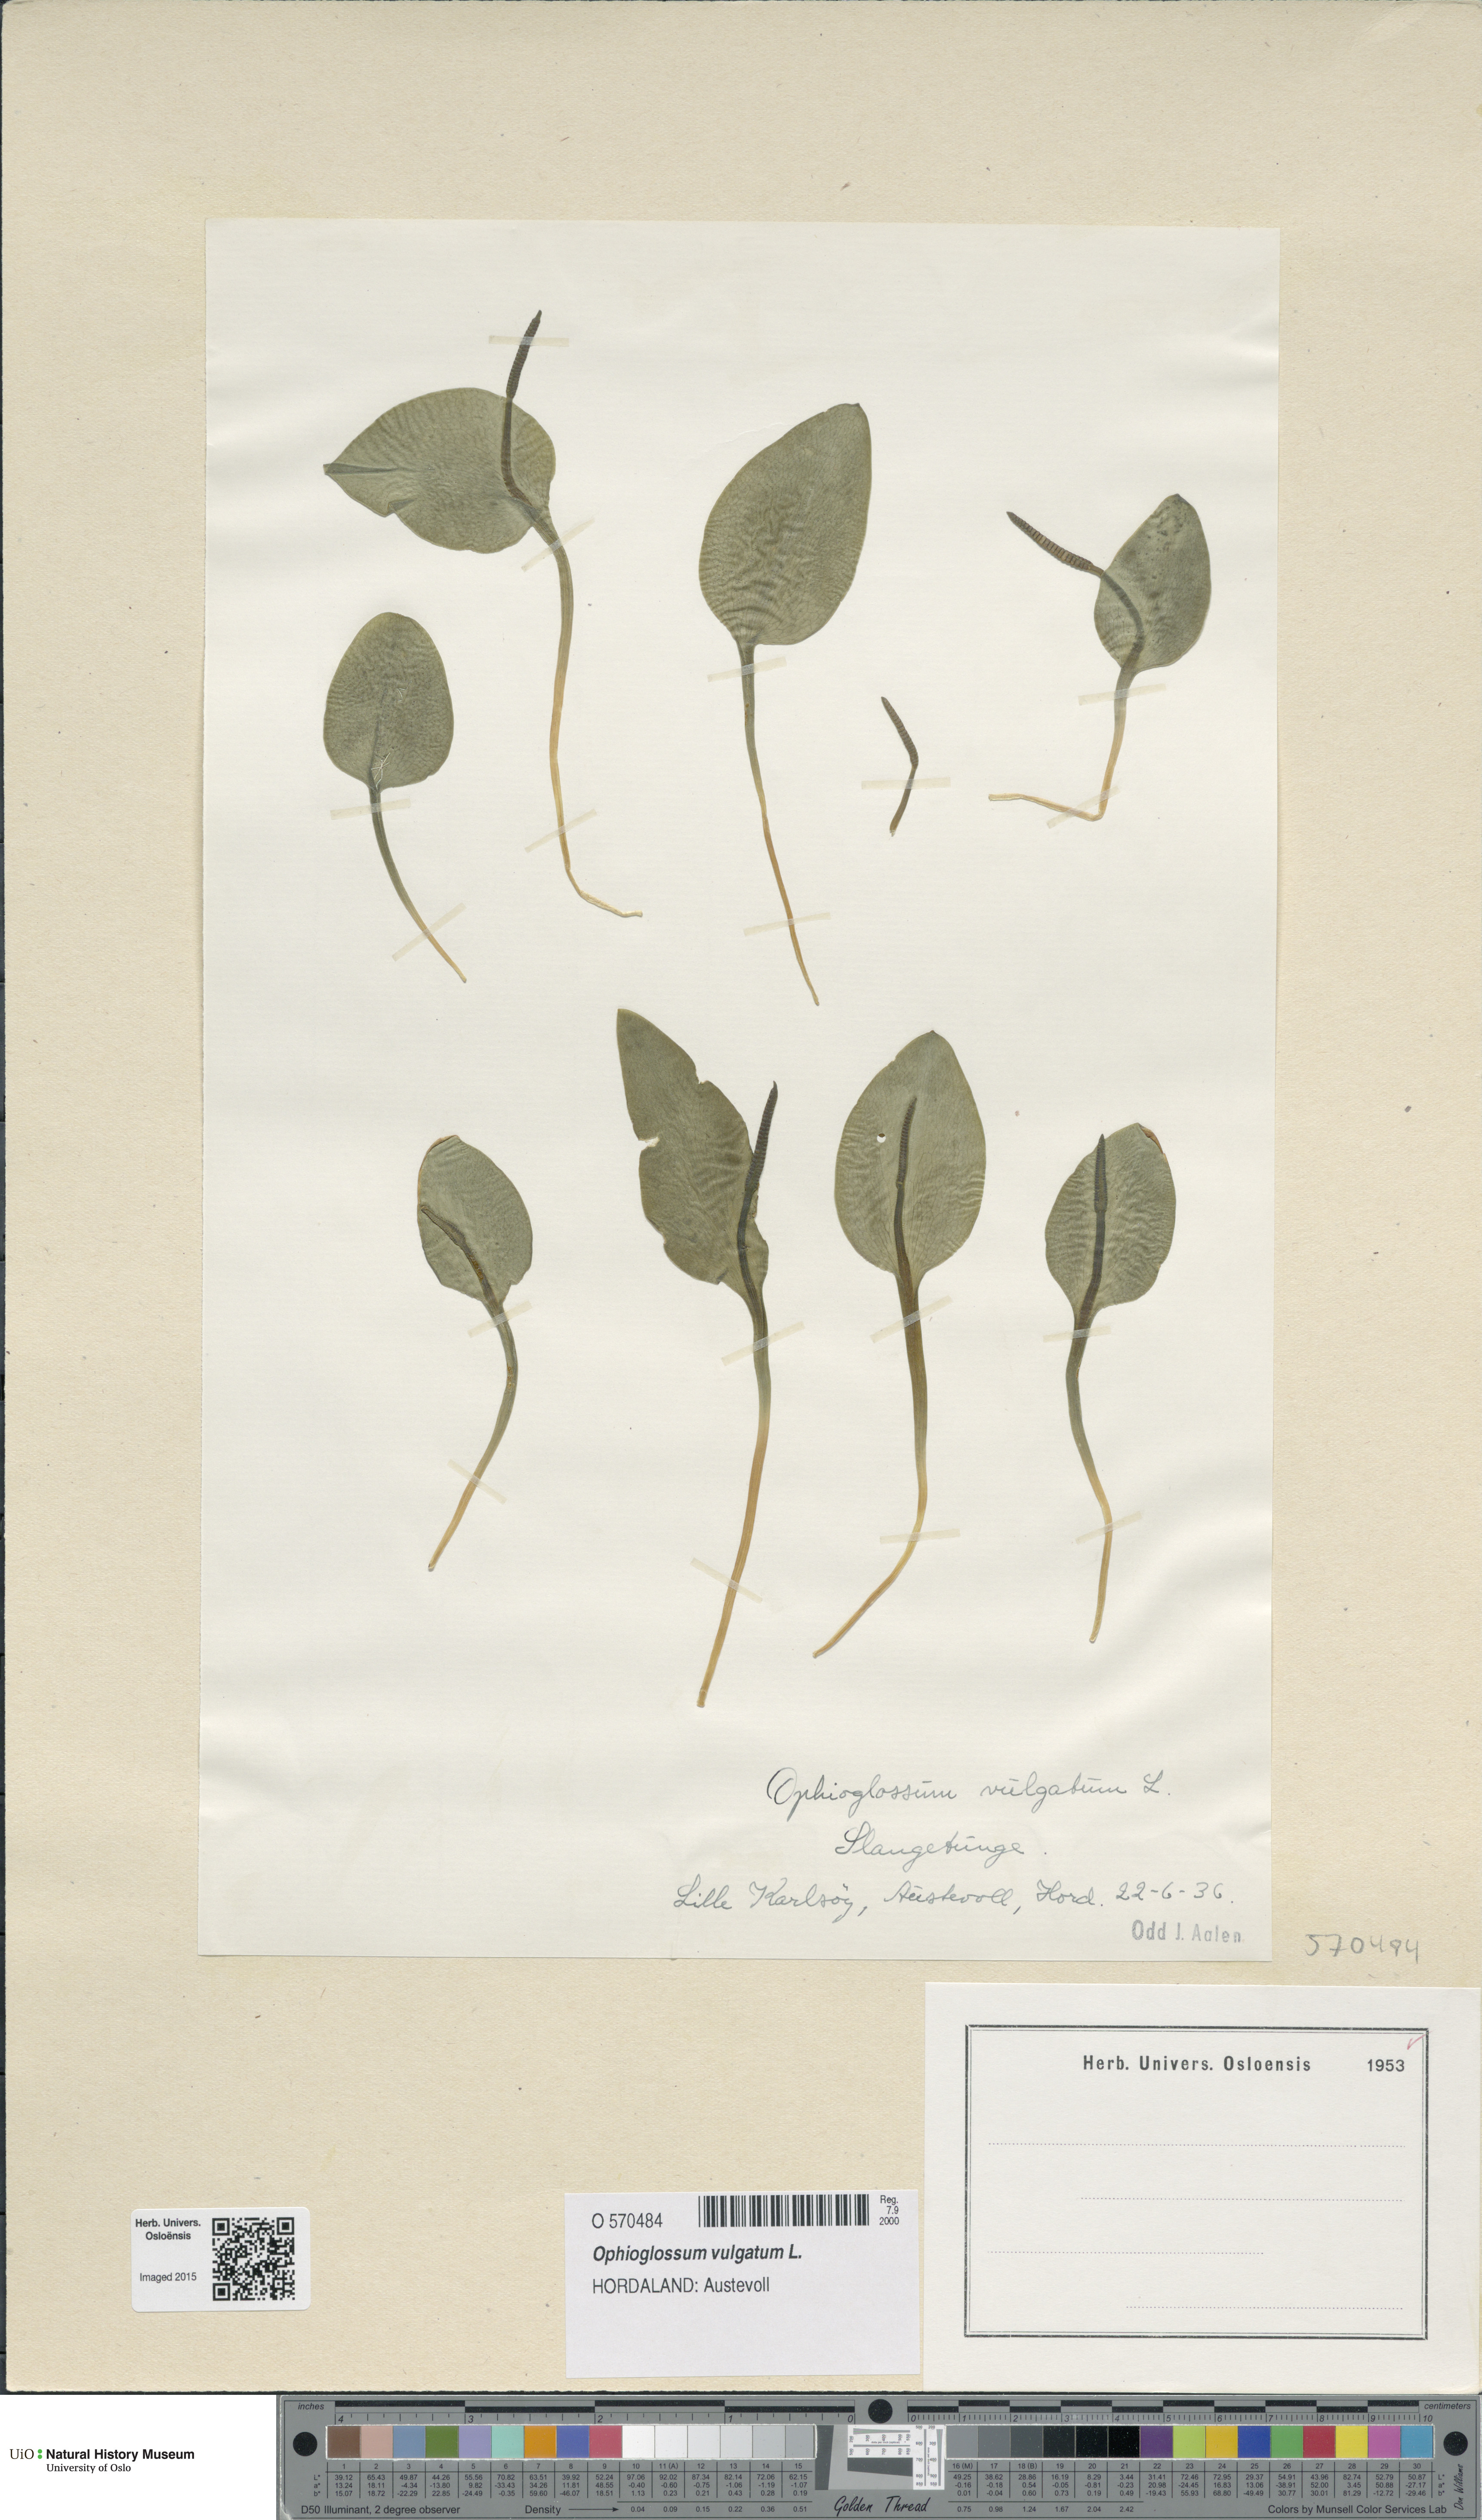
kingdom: Plantae
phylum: Tracheophyta
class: Polypodiopsida
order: Ophioglossales
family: Ophioglossaceae
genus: Ophioglossum
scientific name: Ophioglossum vulgatum
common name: Adder's-tongue
